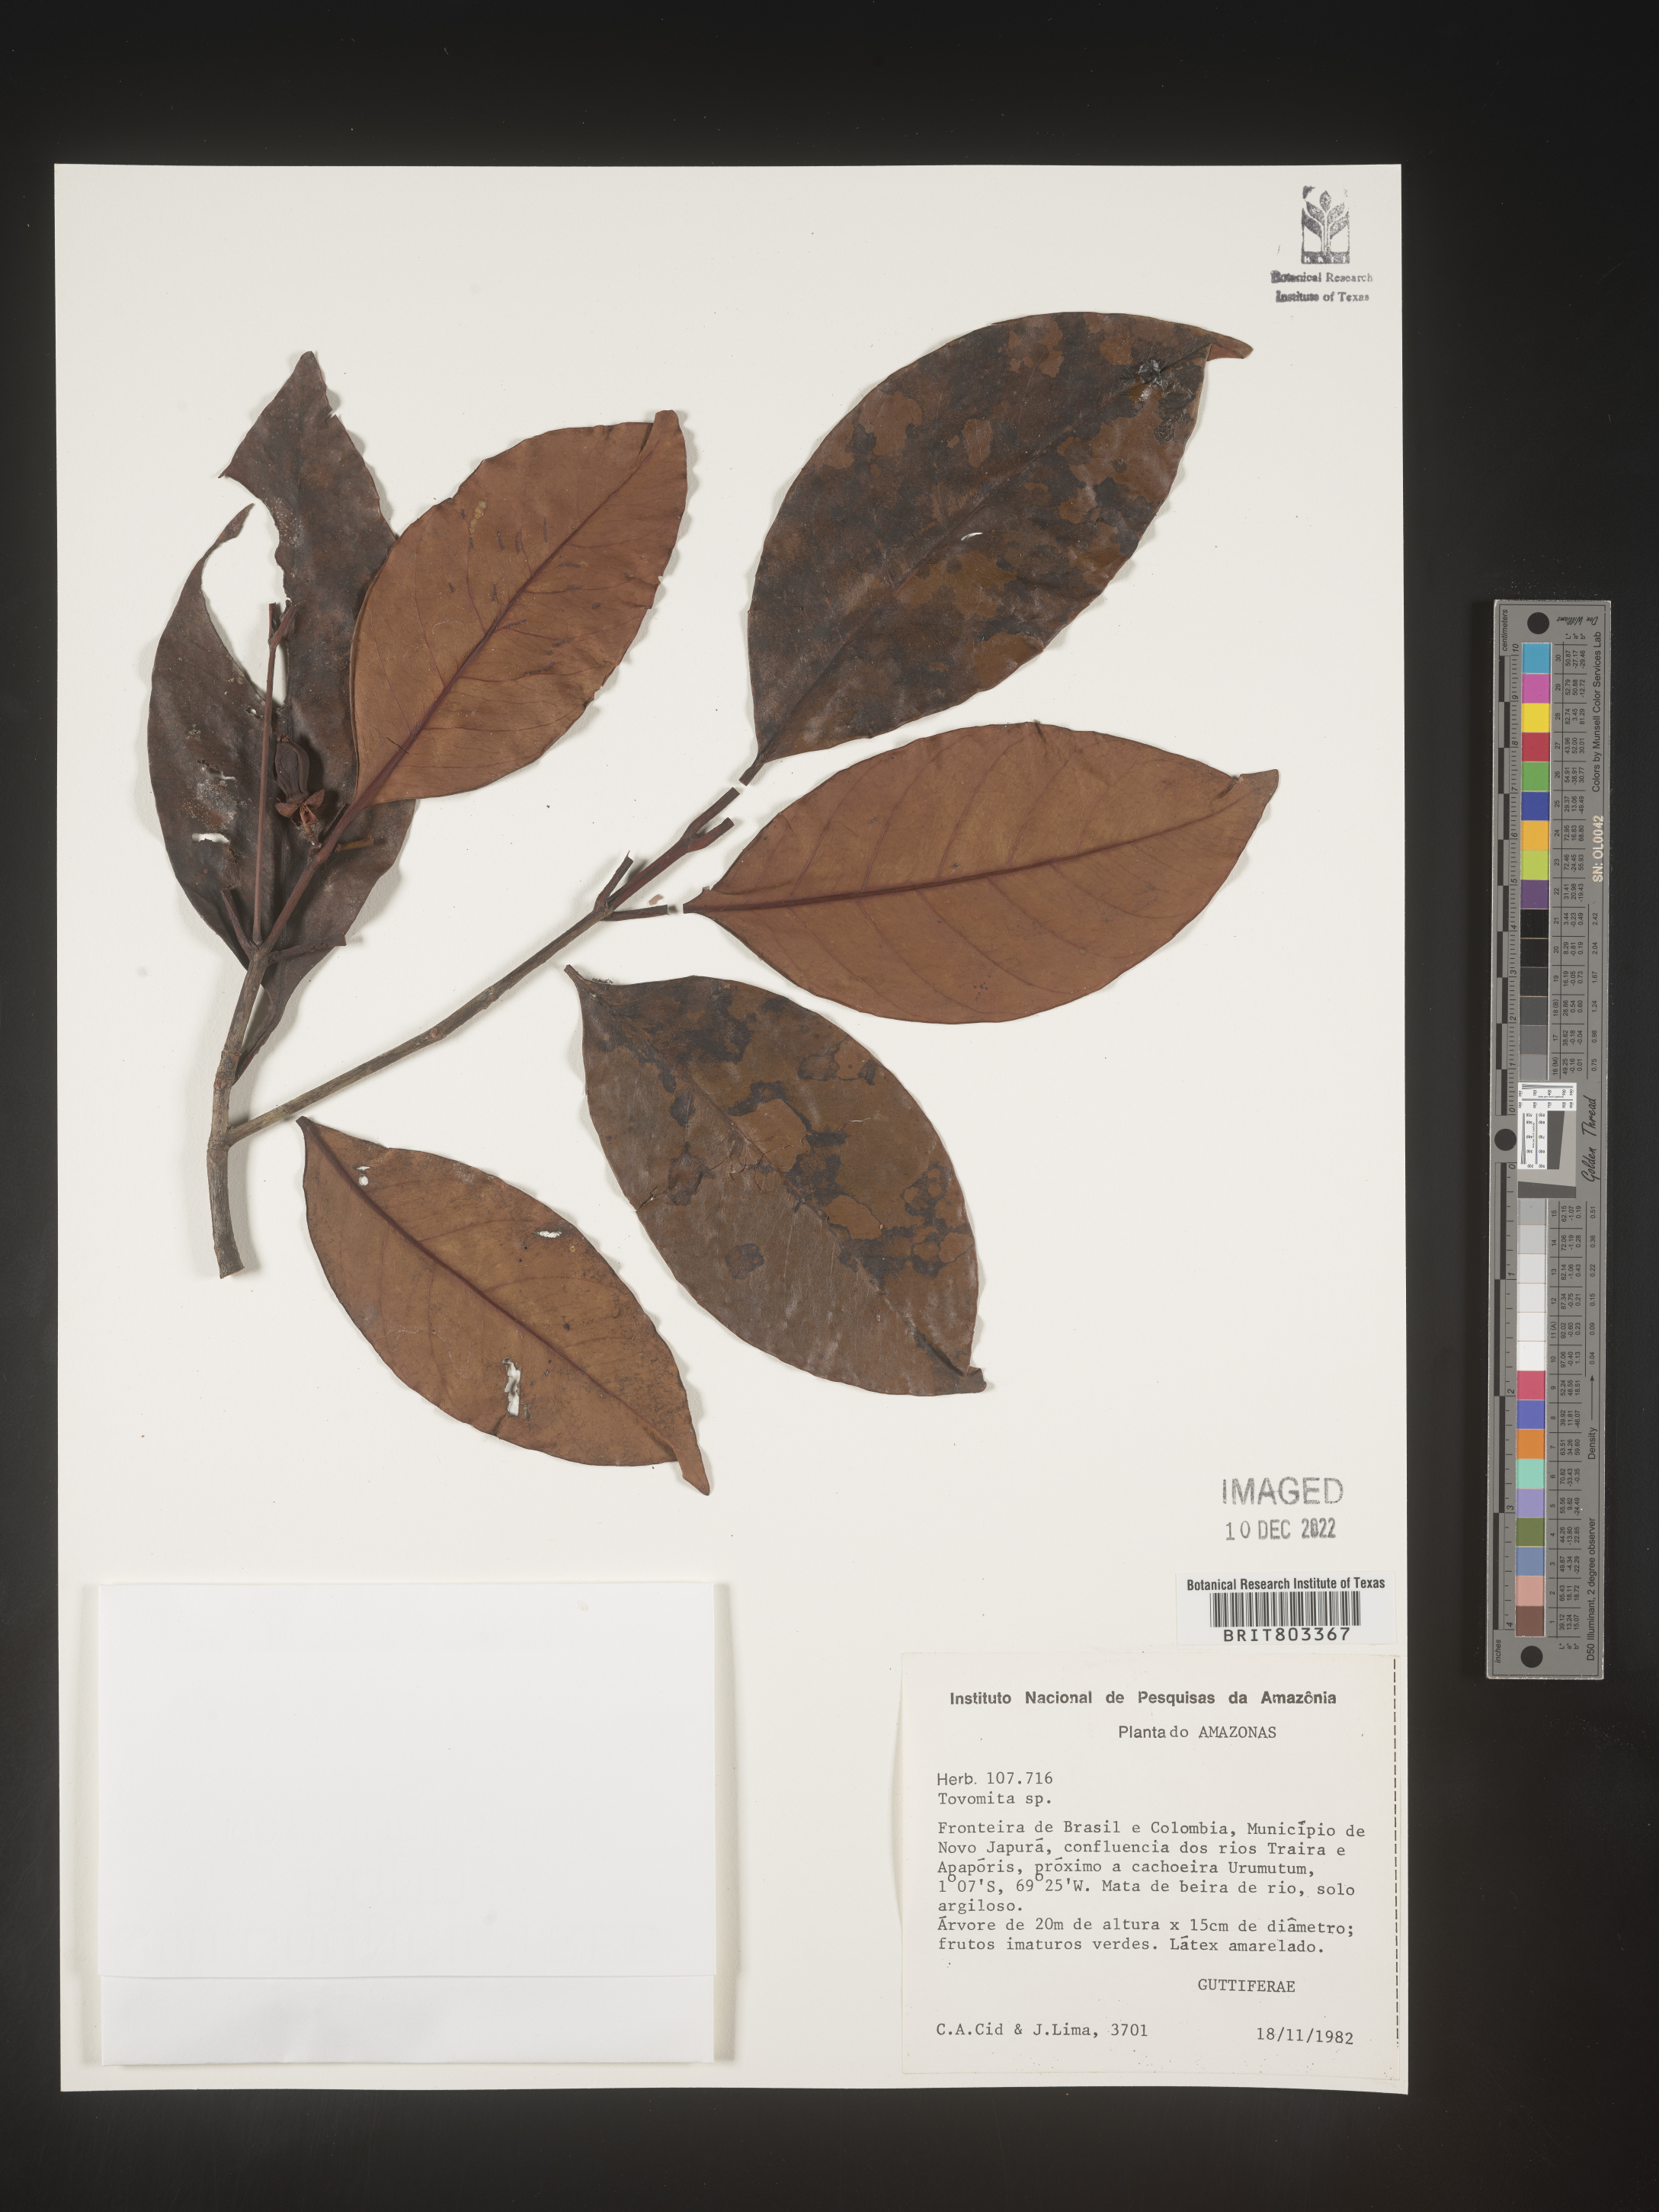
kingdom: Plantae
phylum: Tracheophyta
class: Magnoliopsida
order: Malpighiales
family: Clusiaceae
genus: Tovomita
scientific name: Tovomita
